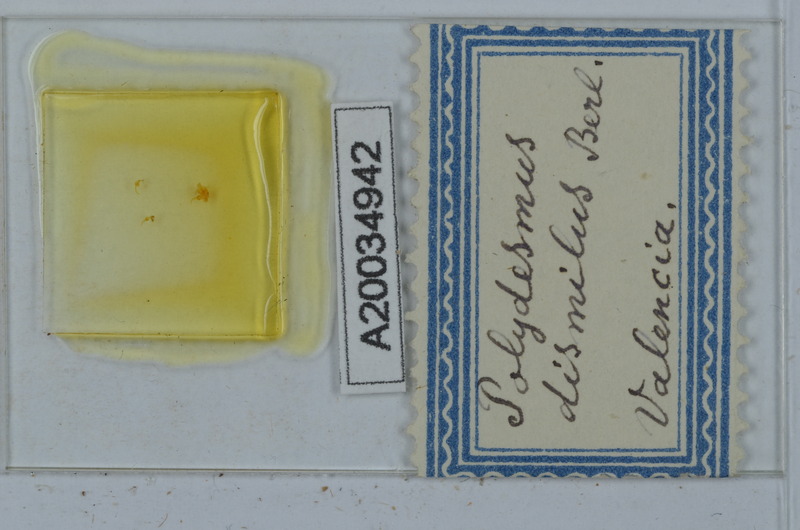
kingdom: Animalia
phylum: Arthropoda
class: Diplopoda
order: Polydesmida
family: Polydesmidae
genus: Propolydesmus
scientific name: Propolydesmus dismilus
